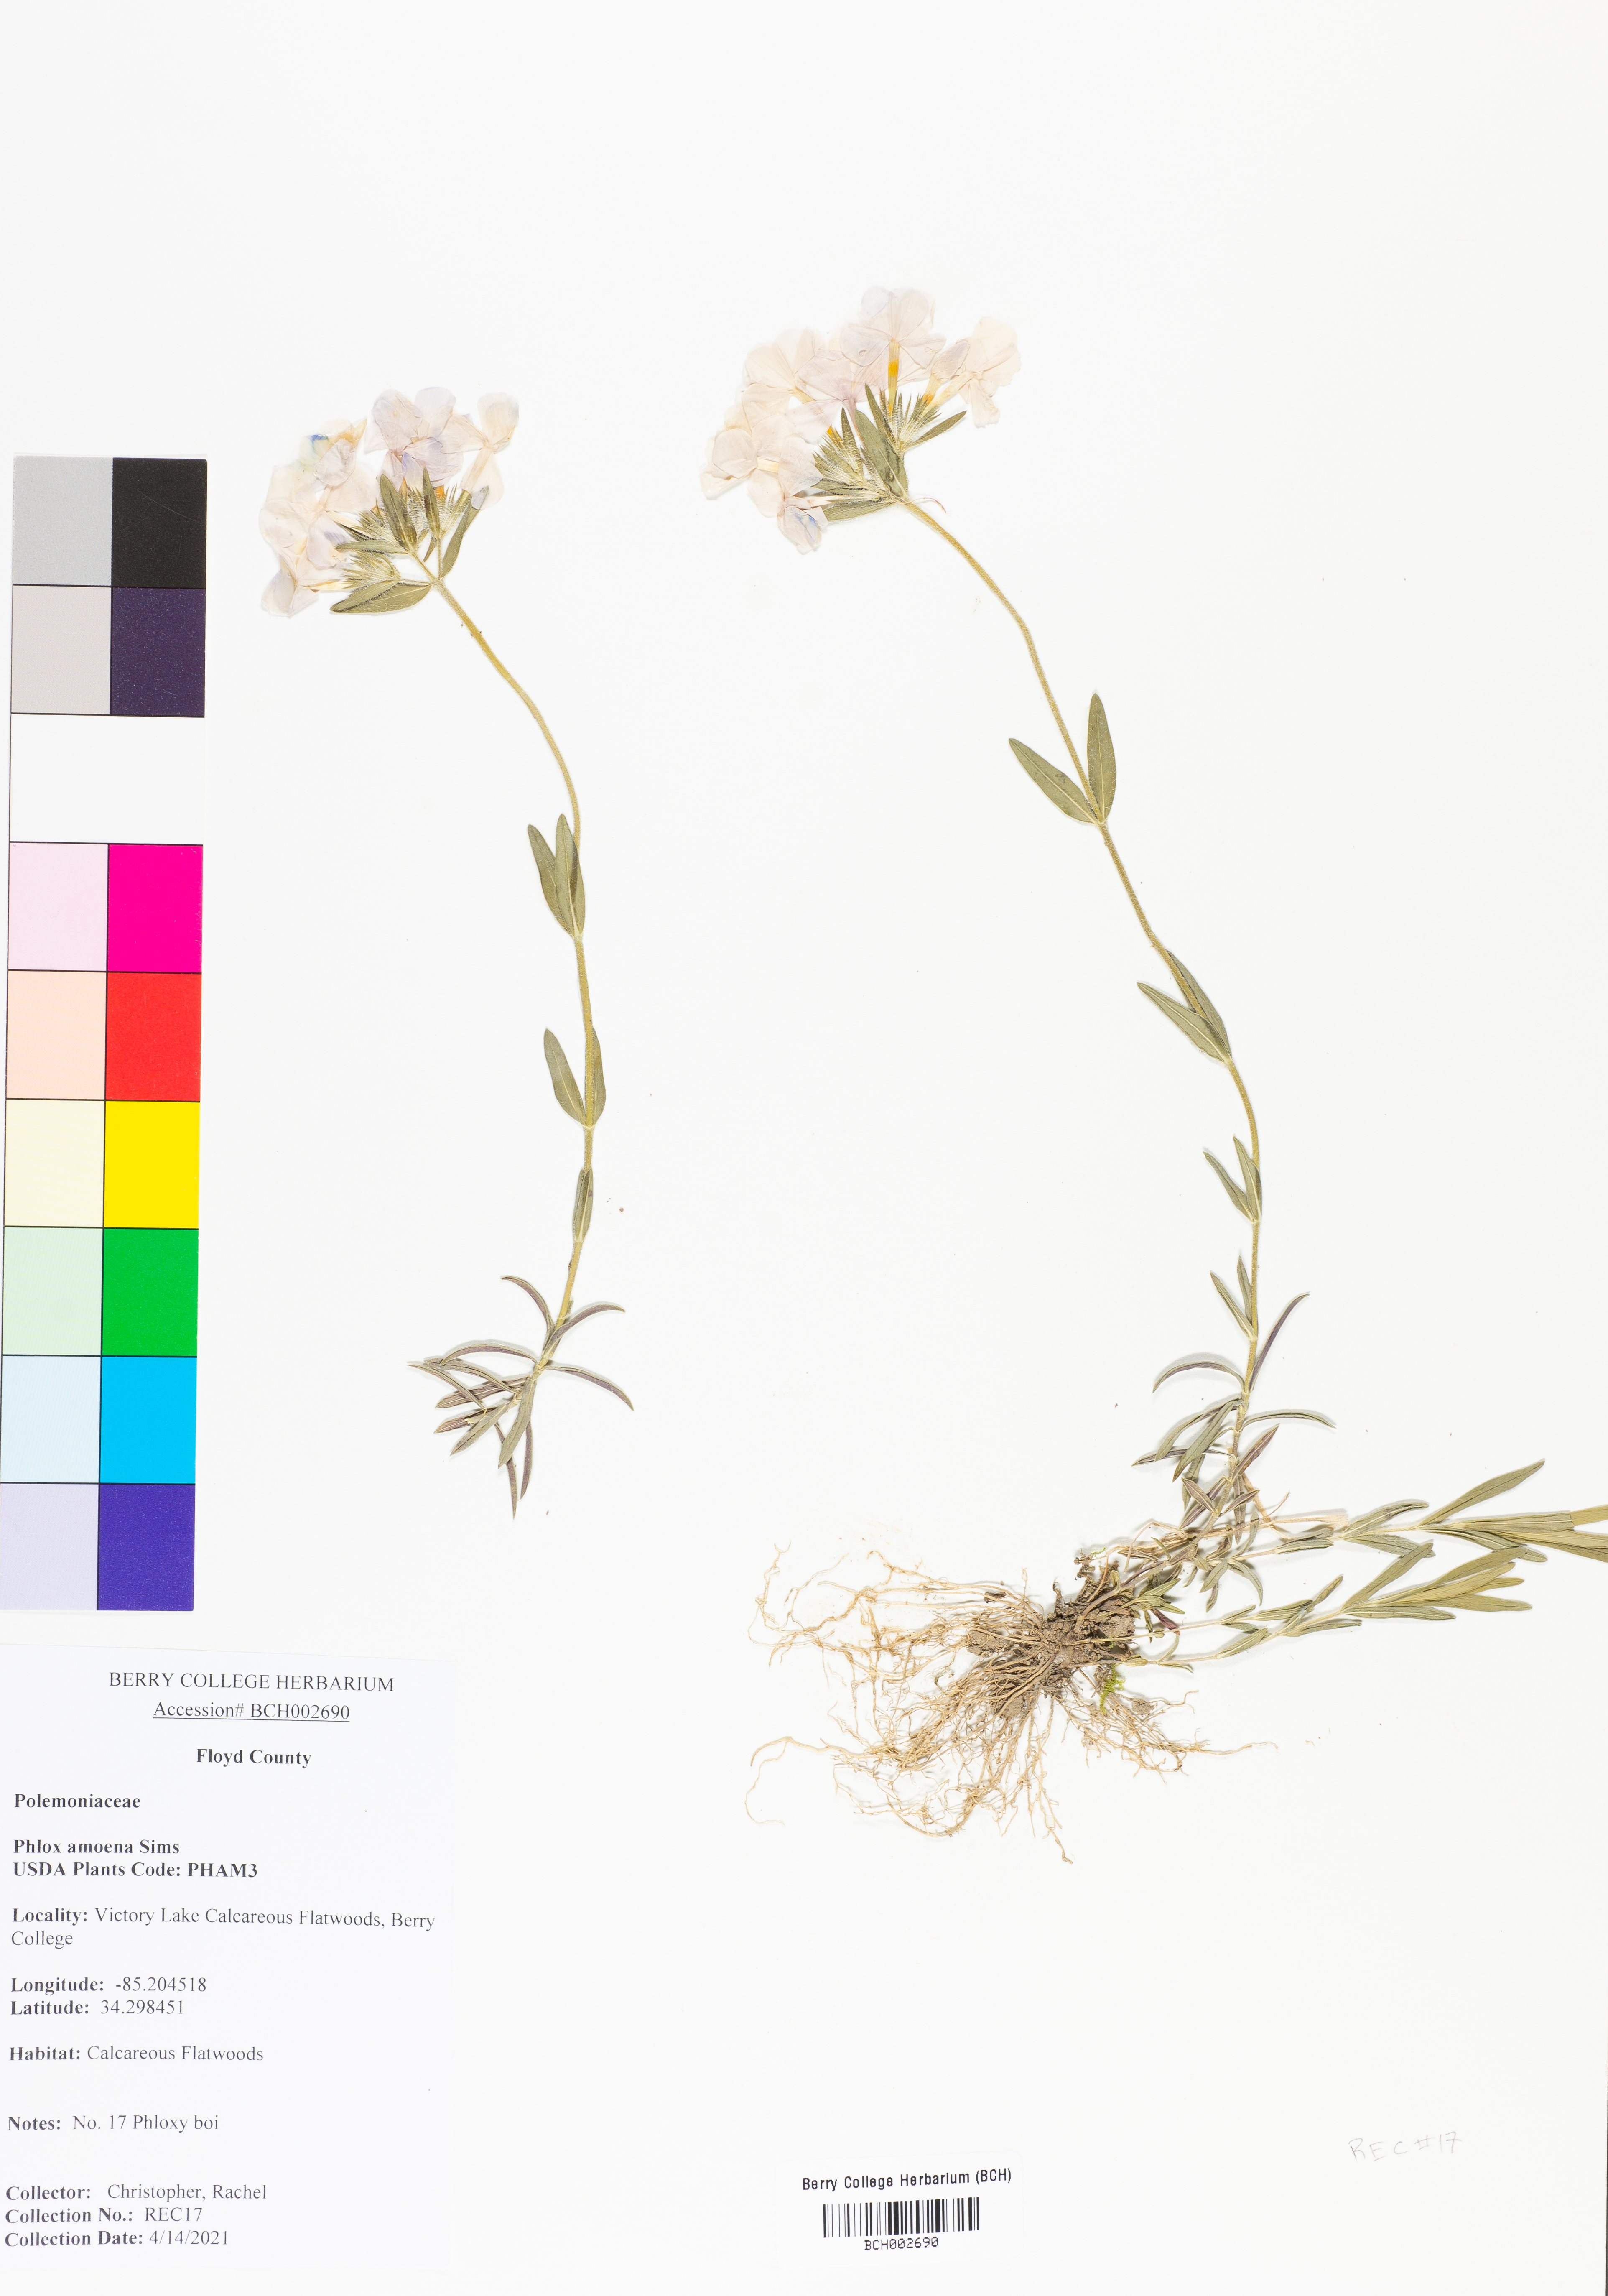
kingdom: Plantae
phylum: Tracheophyta
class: Magnoliopsida
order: Ericales
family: Polemoniaceae
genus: Phlox
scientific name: Phlox amoena
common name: Hairy phlox
